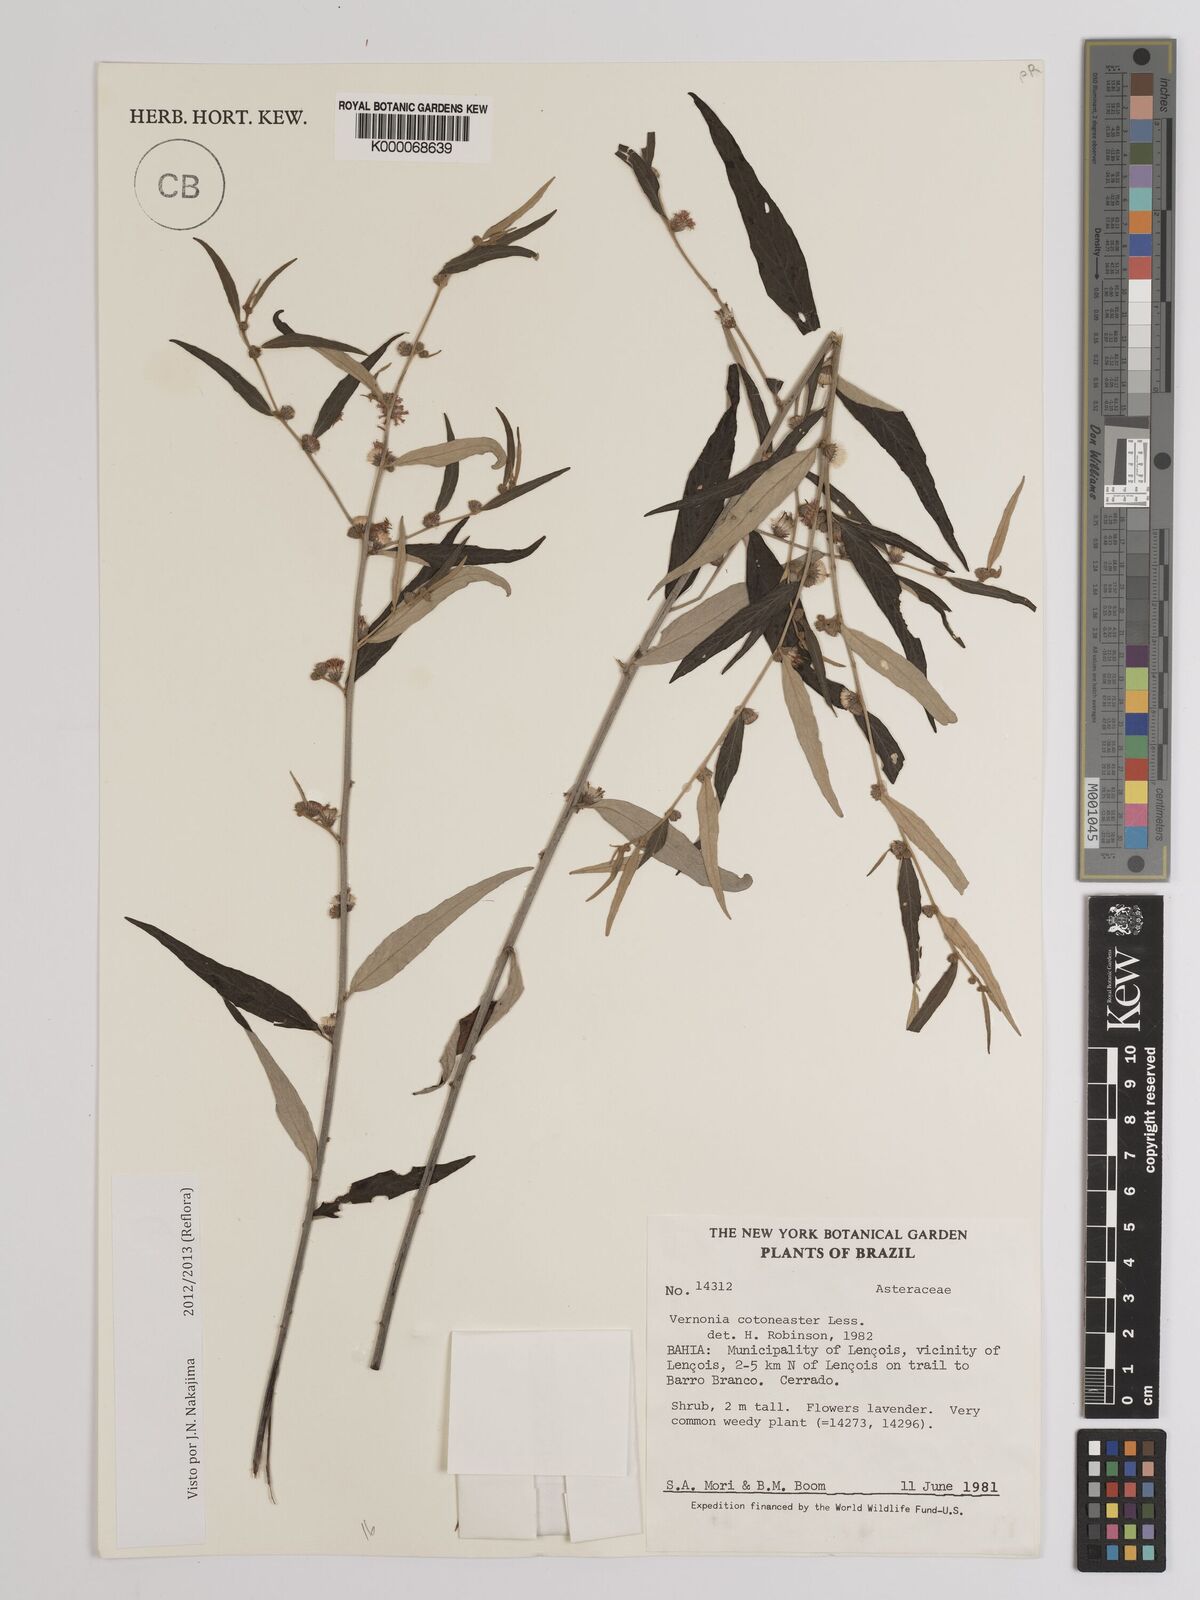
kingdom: Plantae
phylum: Tracheophyta
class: Magnoliopsida
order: Asterales
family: Asteraceae
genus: Lepidaploa
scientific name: Lepidaploa cotoneaster
